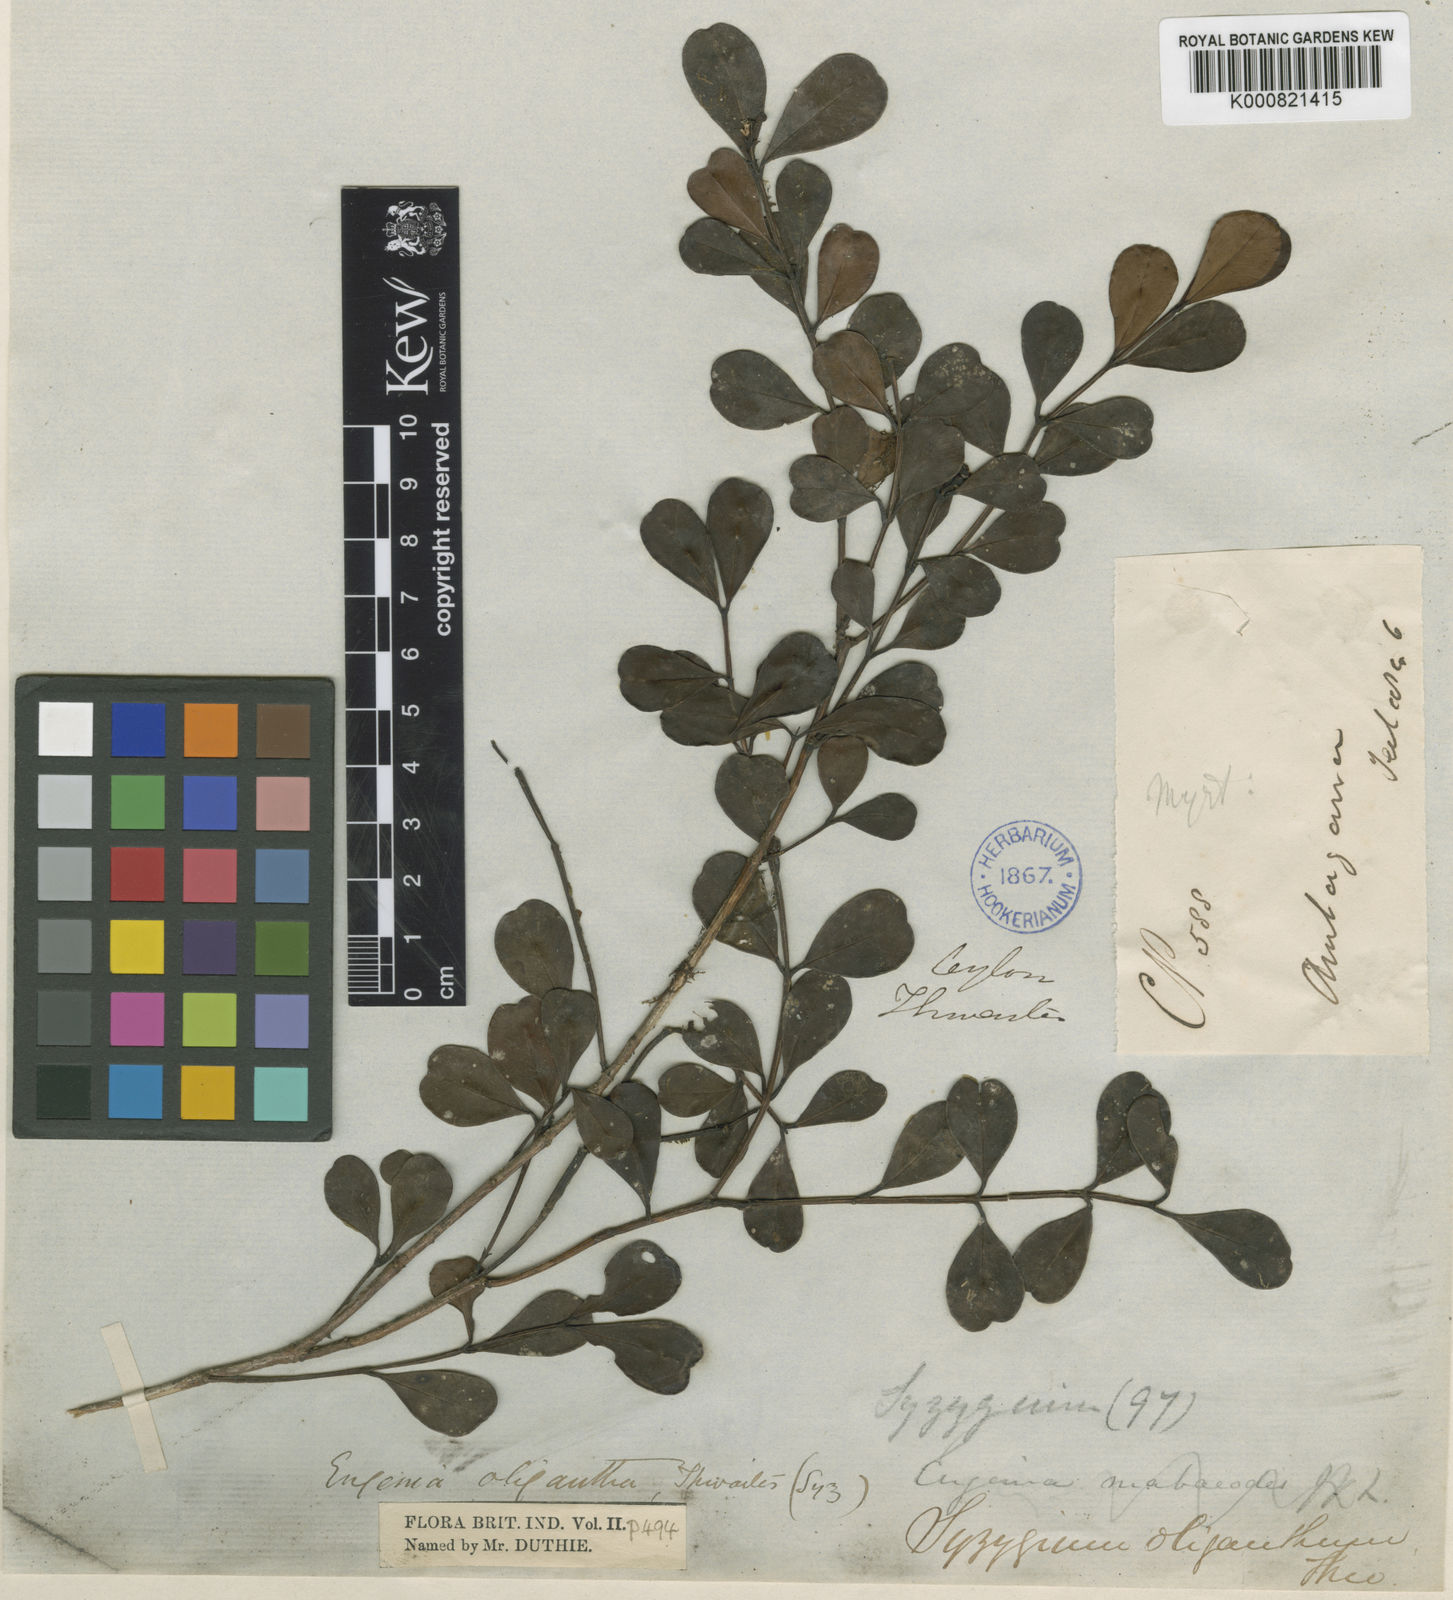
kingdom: Plantae
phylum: Tracheophyta
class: Magnoliopsida
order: Myrtales
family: Myrtaceae
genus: Syzygium
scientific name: Syzygium oliganthum
